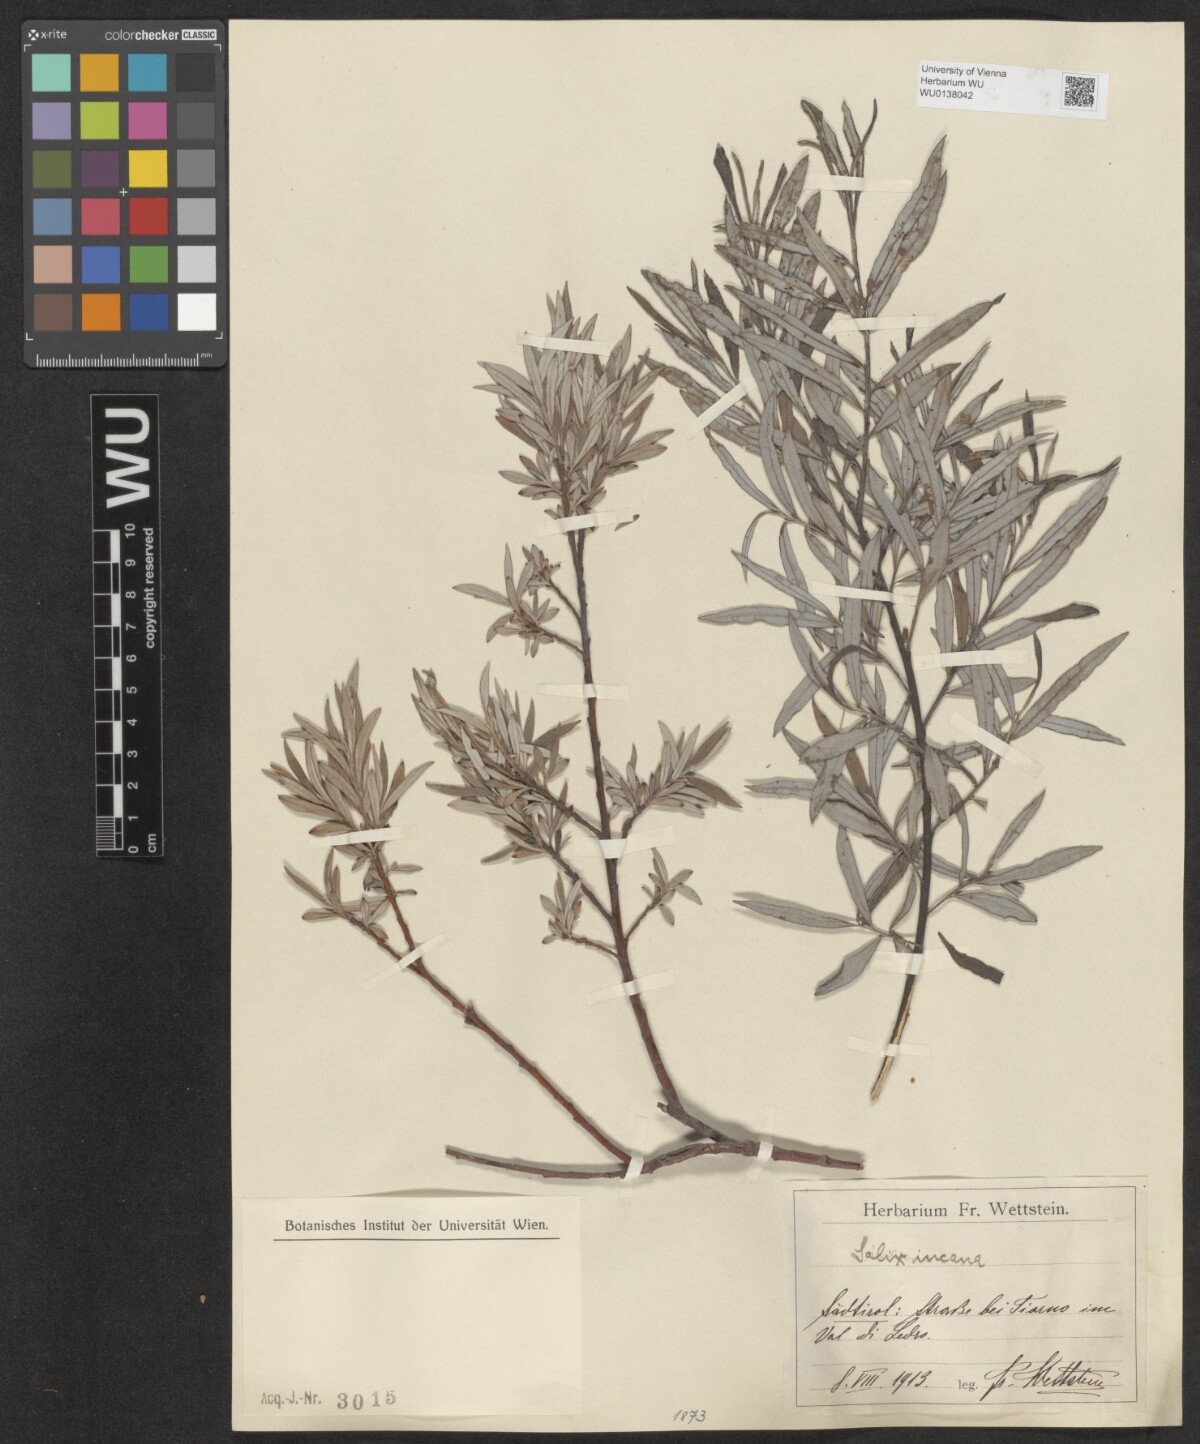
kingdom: Plantae
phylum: Tracheophyta
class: Magnoliopsida
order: Malpighiales
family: Salicaceae
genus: Salix
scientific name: Salix eleagnos
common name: Elaeagnus willow
